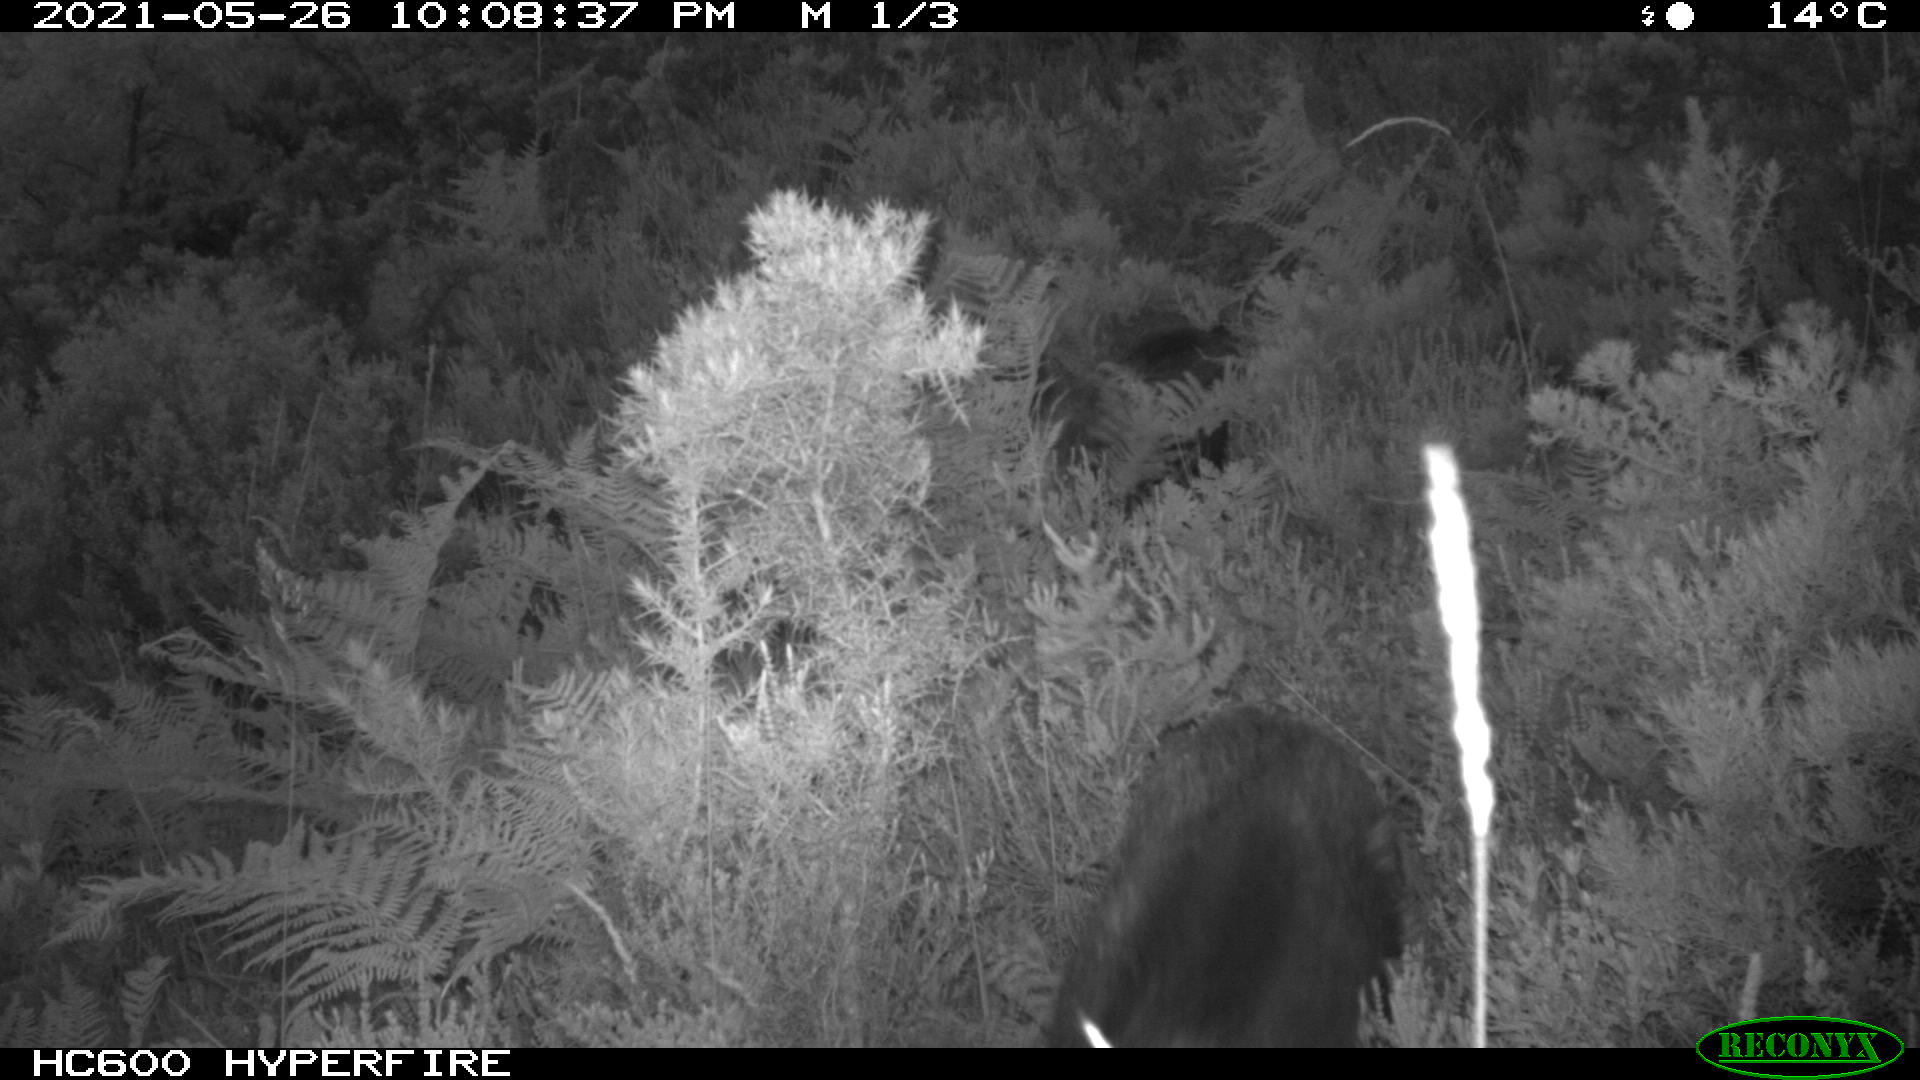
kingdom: Animalia
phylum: Chordata
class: Mammalia
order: Artiodactyla
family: Suidae
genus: Sus
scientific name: Sus scrofa
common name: Wild boar
